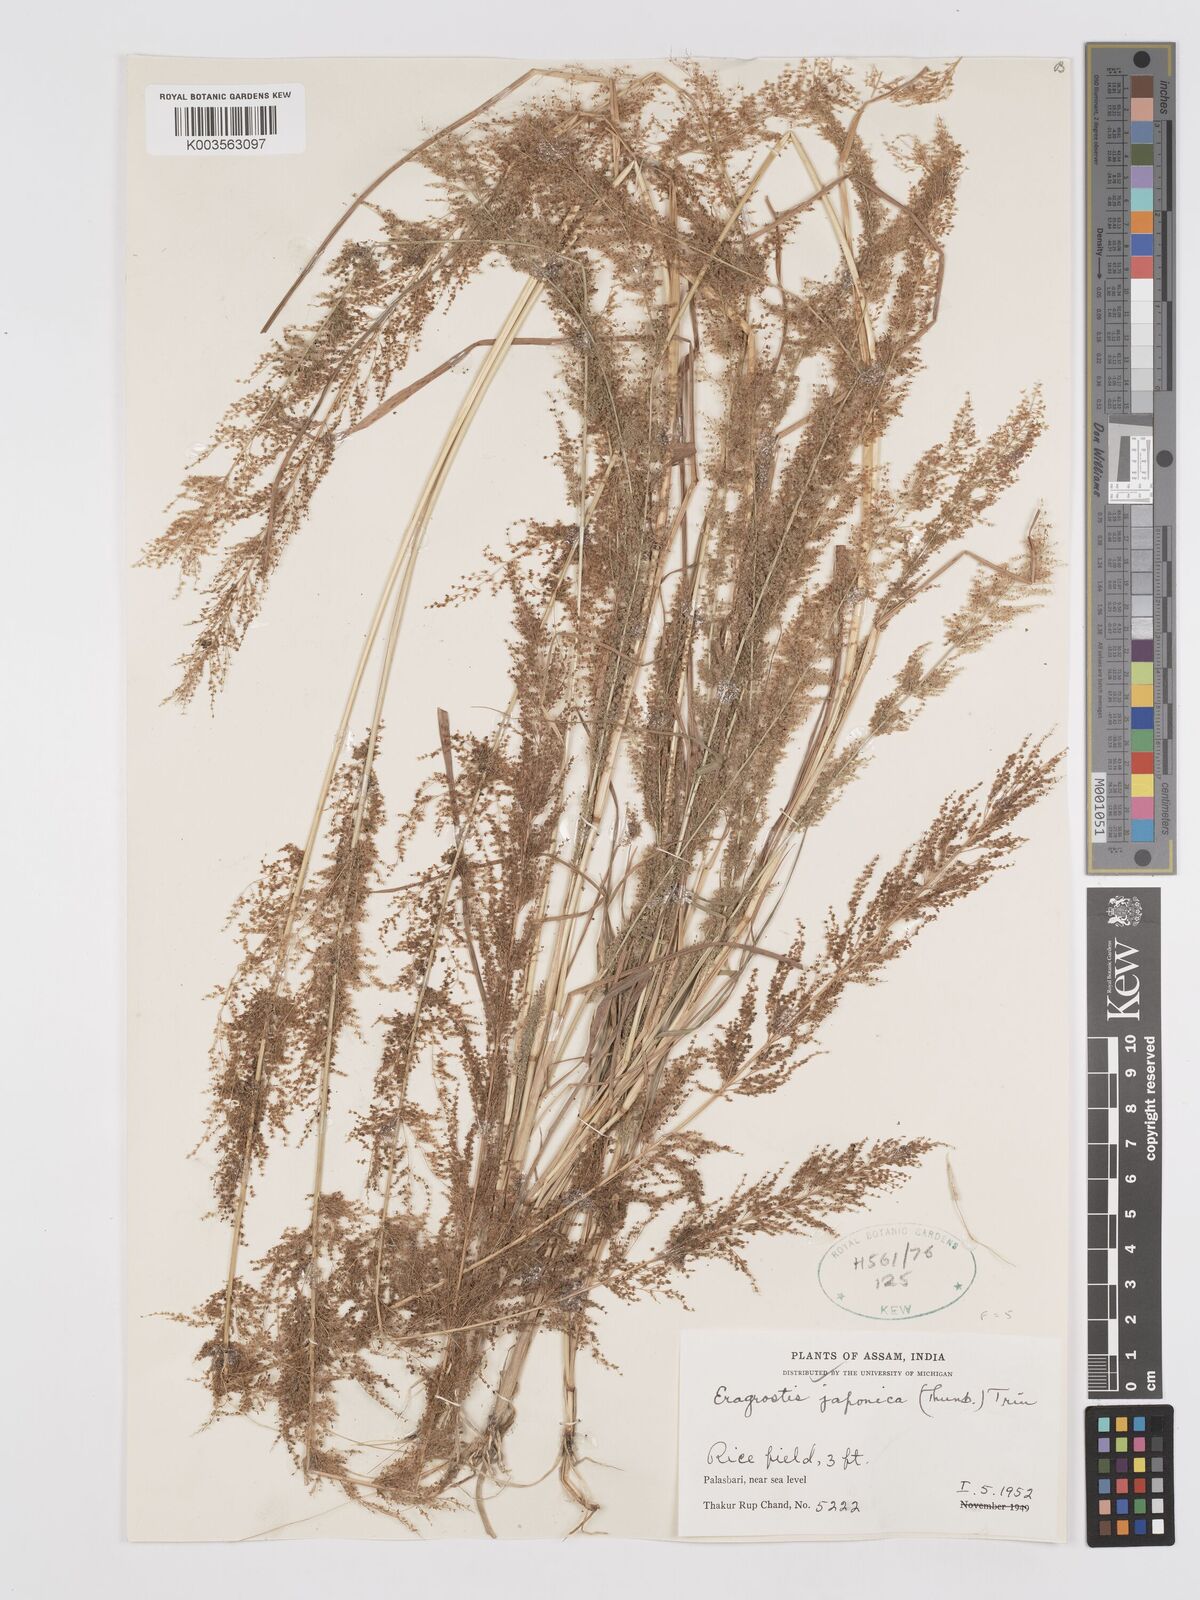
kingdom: Plantae
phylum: Tracheophyta
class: Liliopsida
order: Poales
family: Poaceae
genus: Eragrostis
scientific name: Eragrostis japonica
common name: Pond lovegrass
